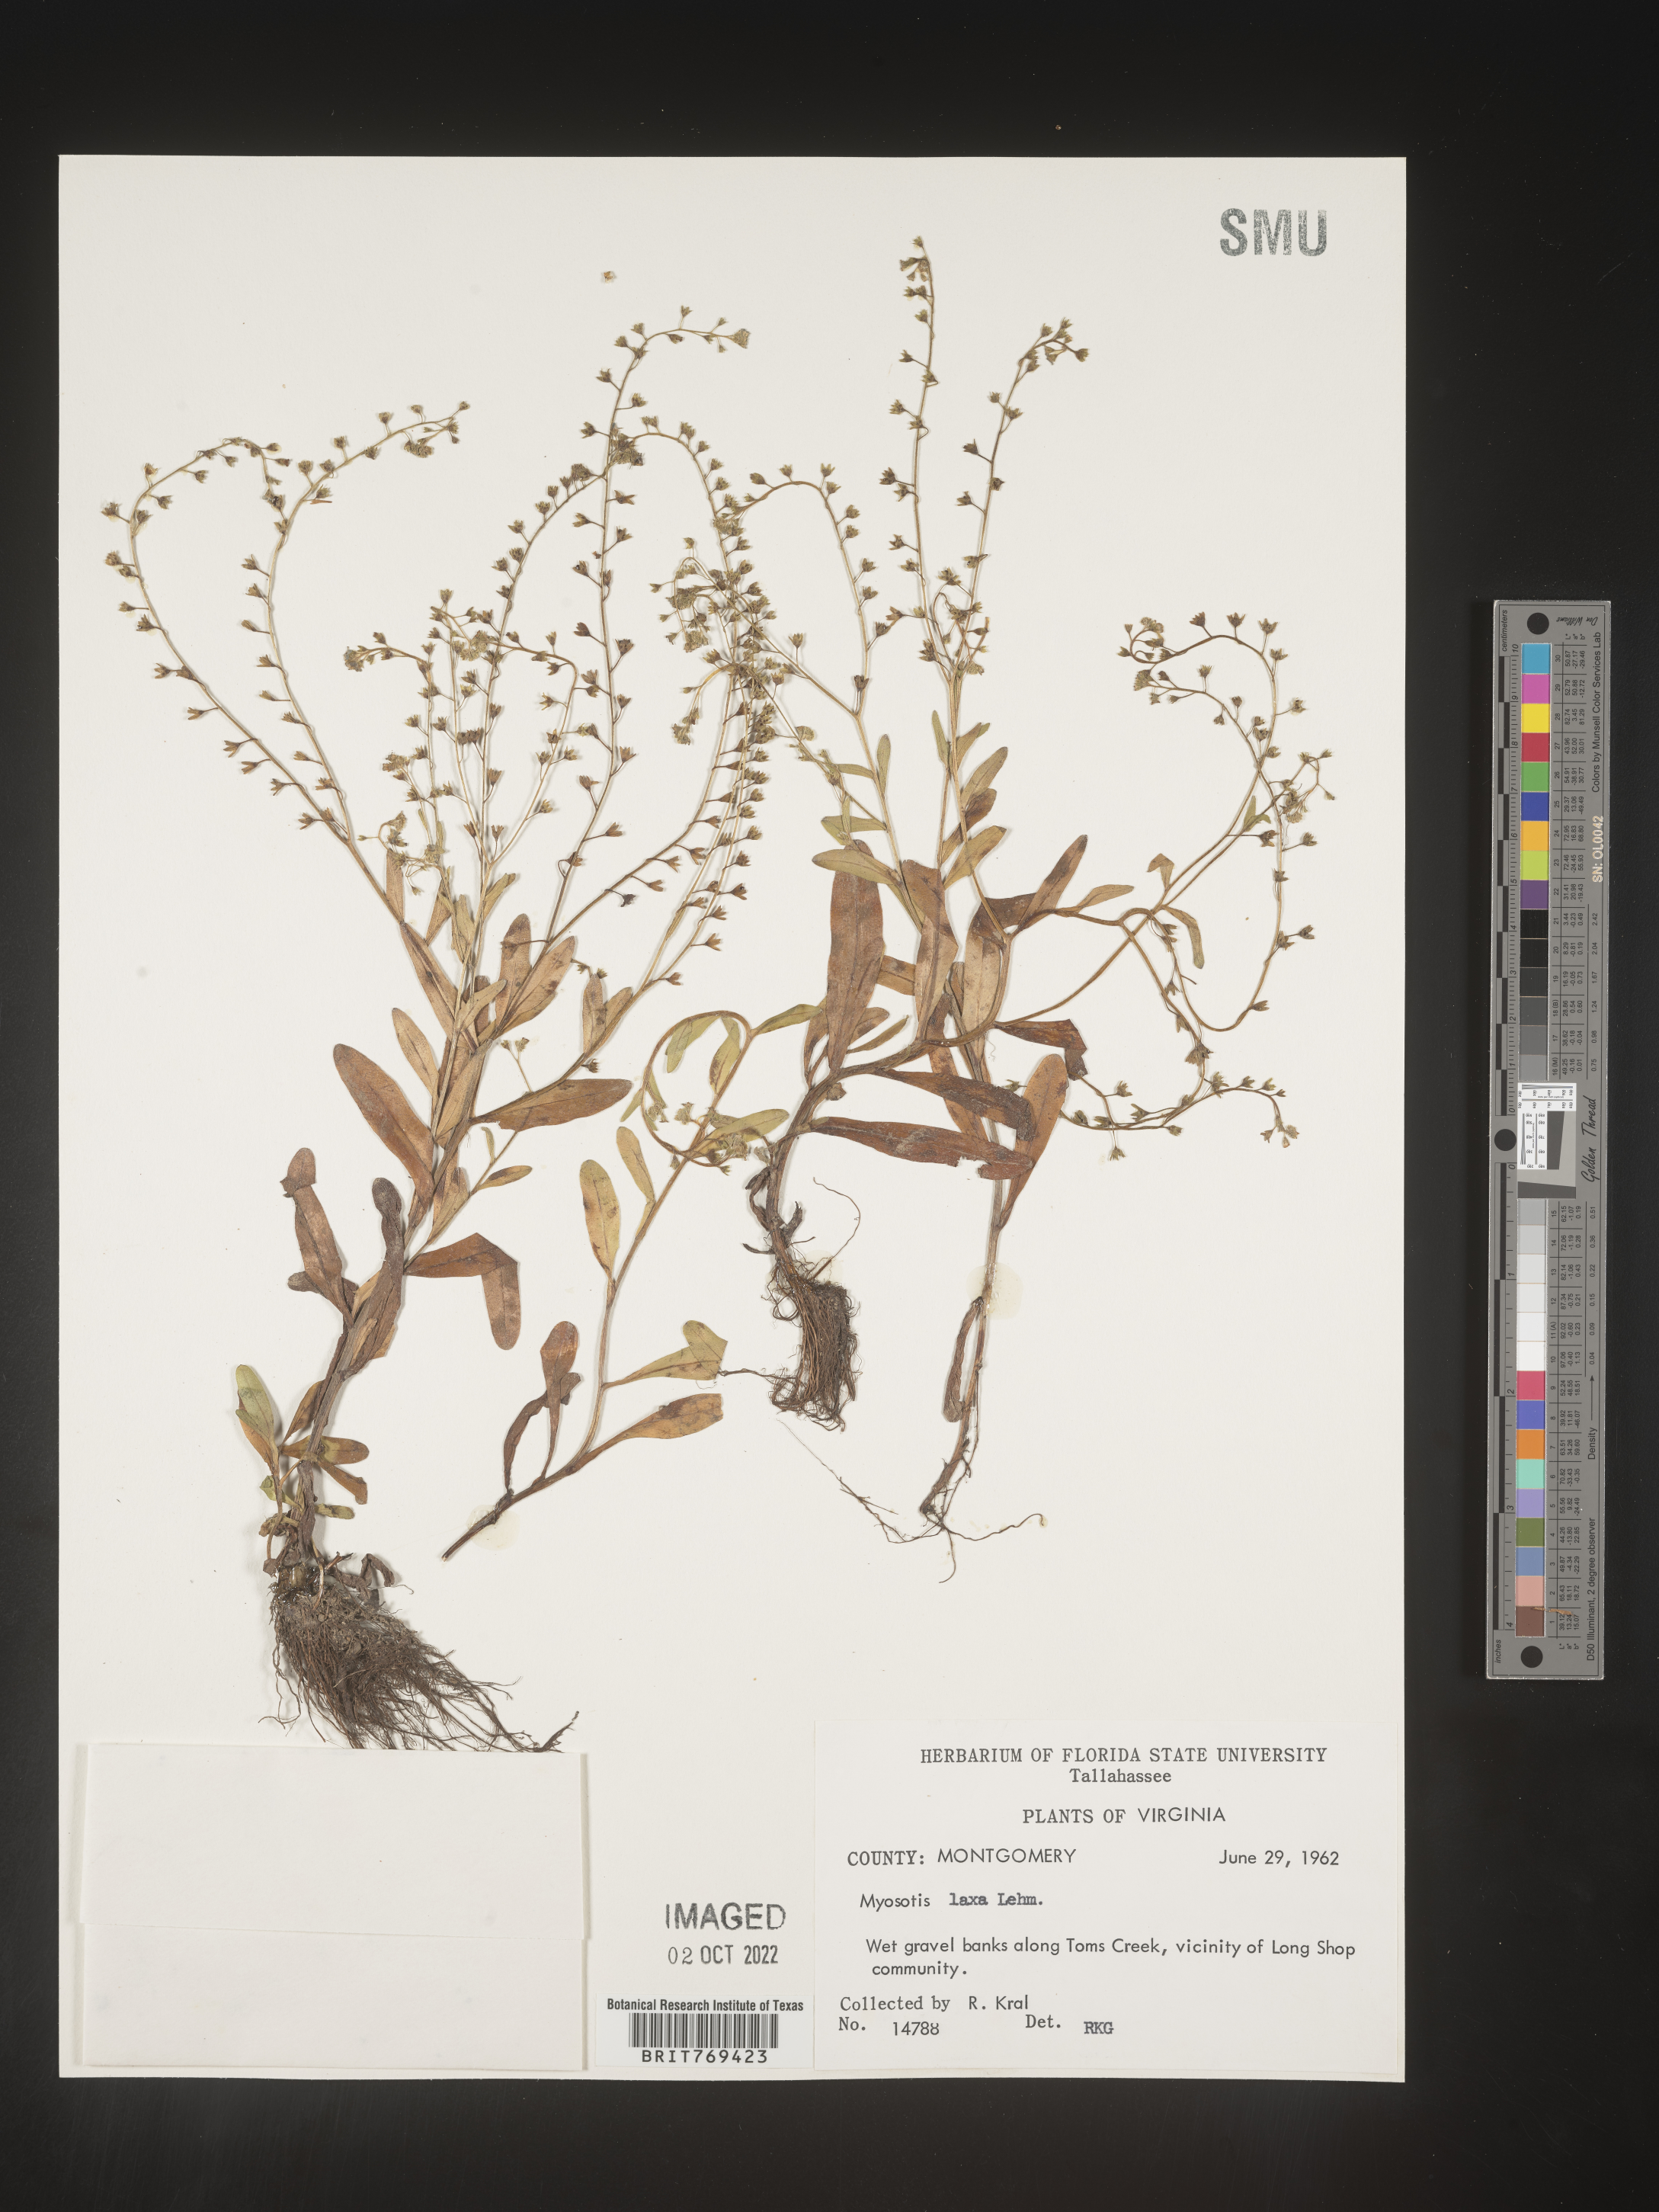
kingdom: Plantae
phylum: Tracheophyta
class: Magnoliopsida
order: Boraginales
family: Boraginaceae
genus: Myosotis
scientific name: Myosotis
